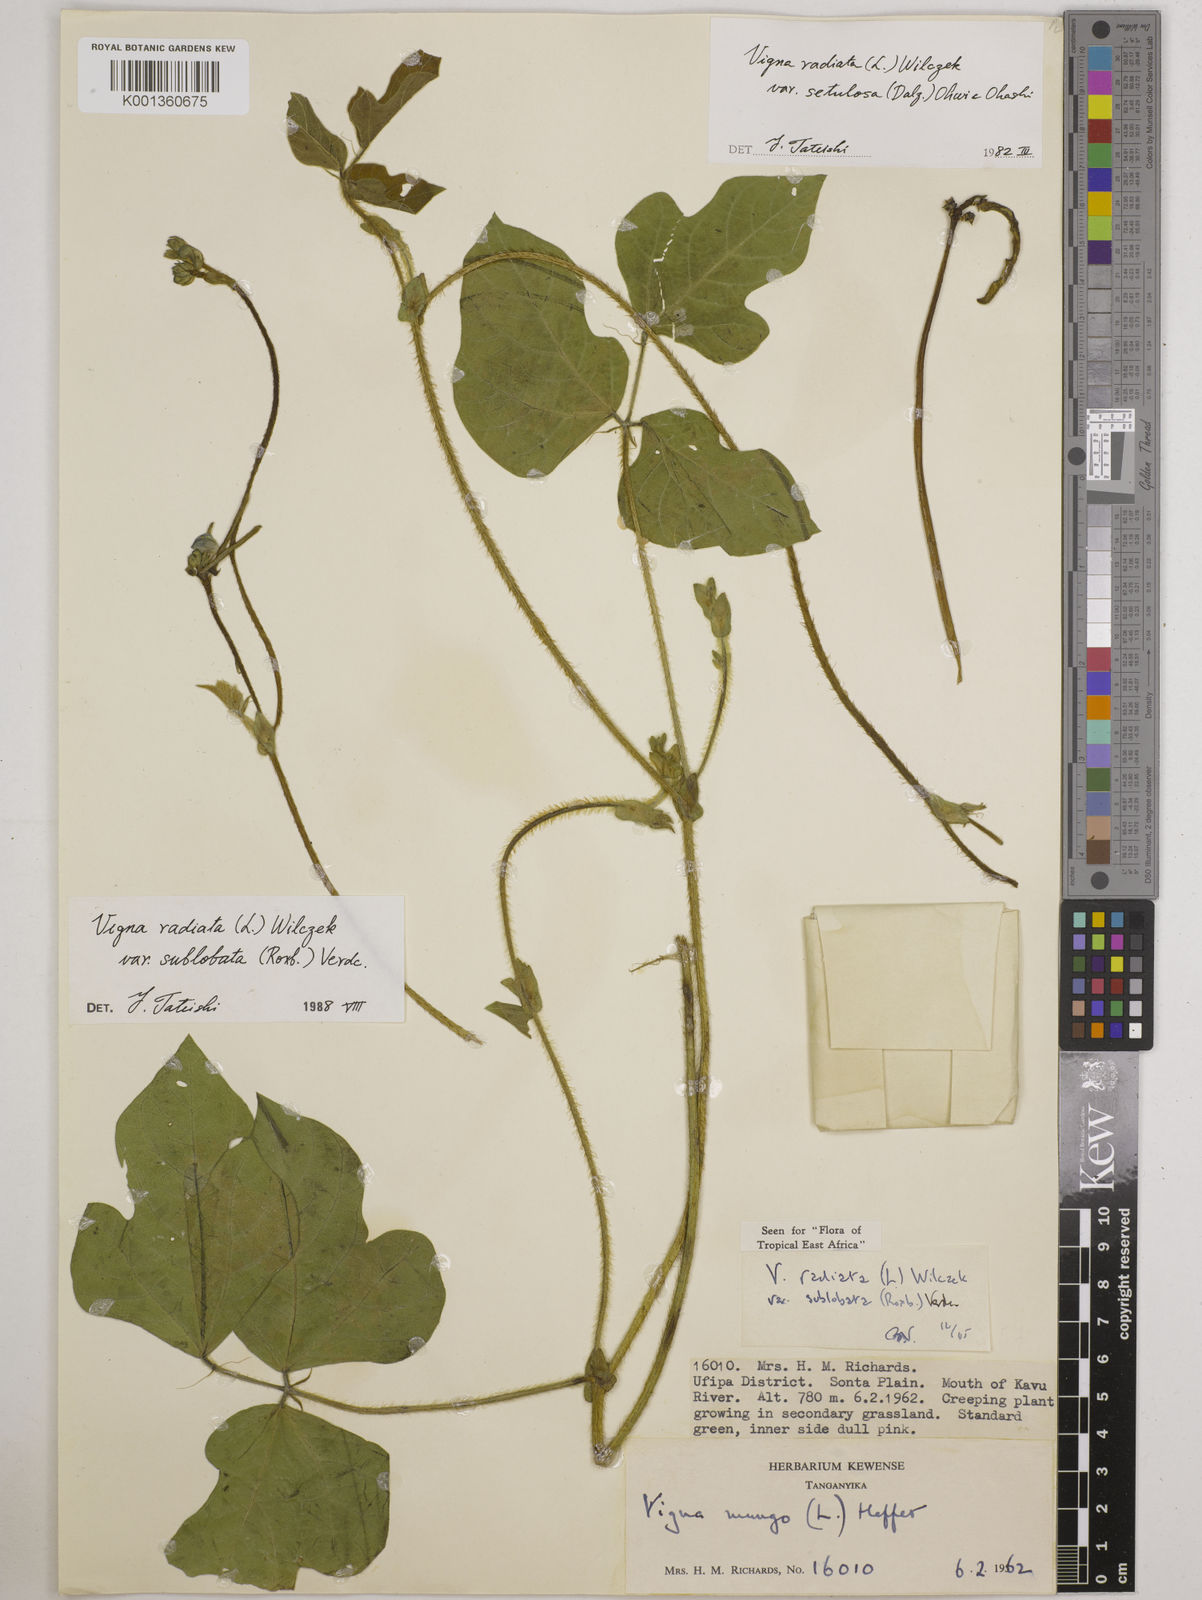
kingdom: Plantae
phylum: Tracheophyta
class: Magnoliopsida
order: Fabales
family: Fabaceae
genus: Vigna
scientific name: Vigna radiata
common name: Mung-bean
